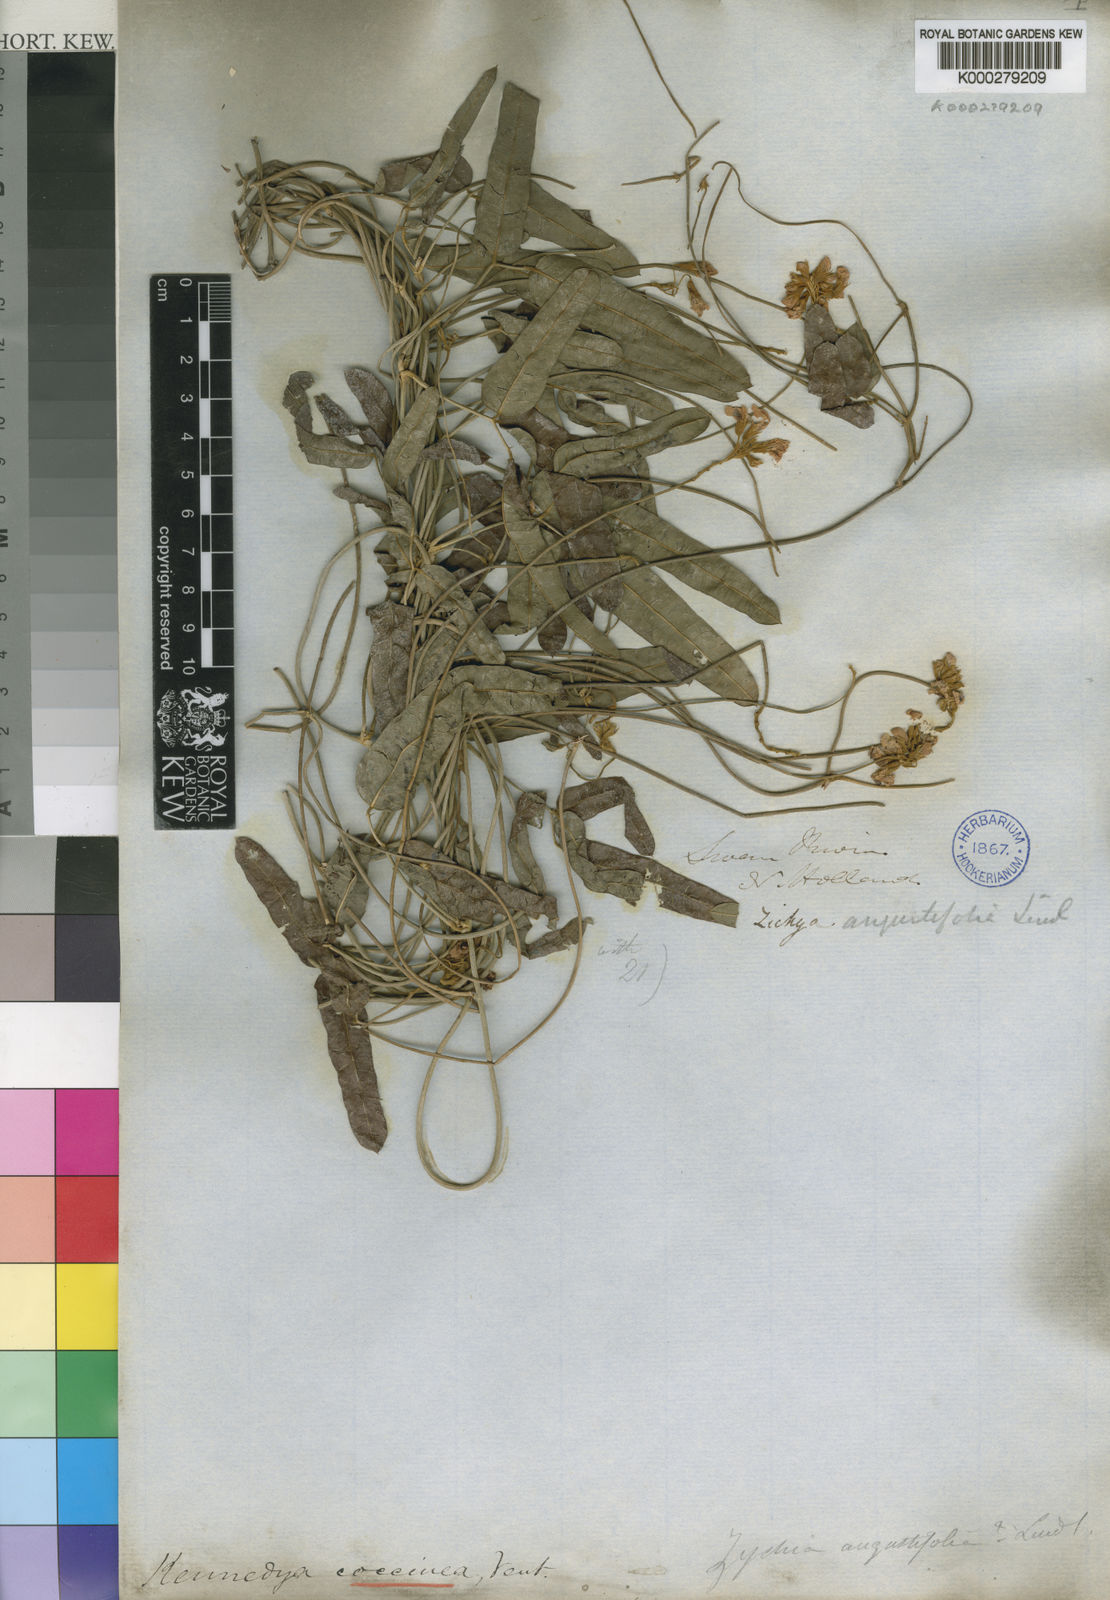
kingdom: Plantae
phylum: Tracheophyta
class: Magnoliopsida
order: Fabales
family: Fabaceae
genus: Kennedia
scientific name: Kennedia coccinea
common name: Coralvine
